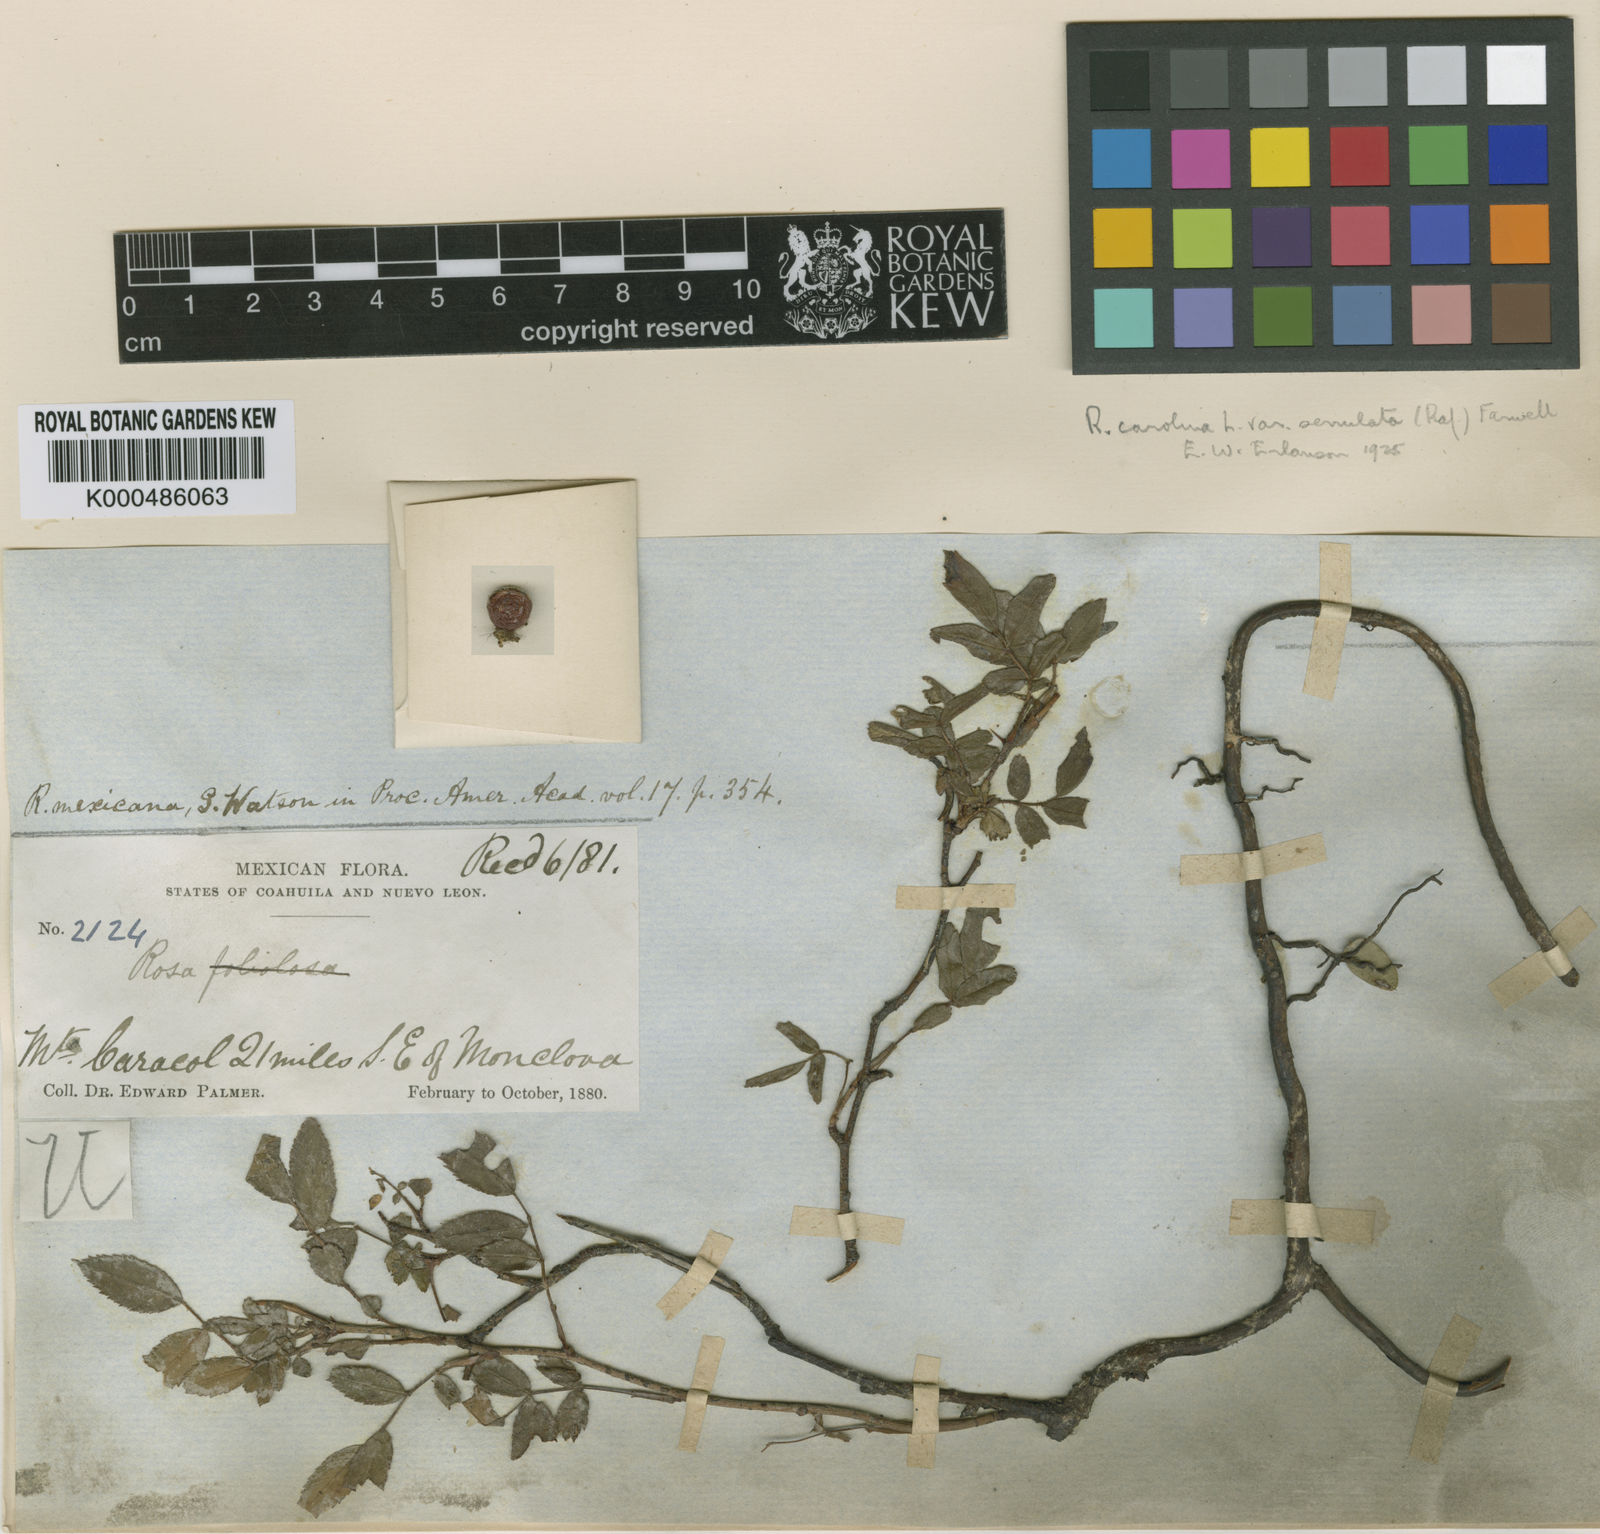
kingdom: Plantae
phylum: Tracheophyta
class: Magnoliopsida
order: Rosales
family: Rosaceae
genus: Rosa
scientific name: Rosa carolina
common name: Pasture rose
